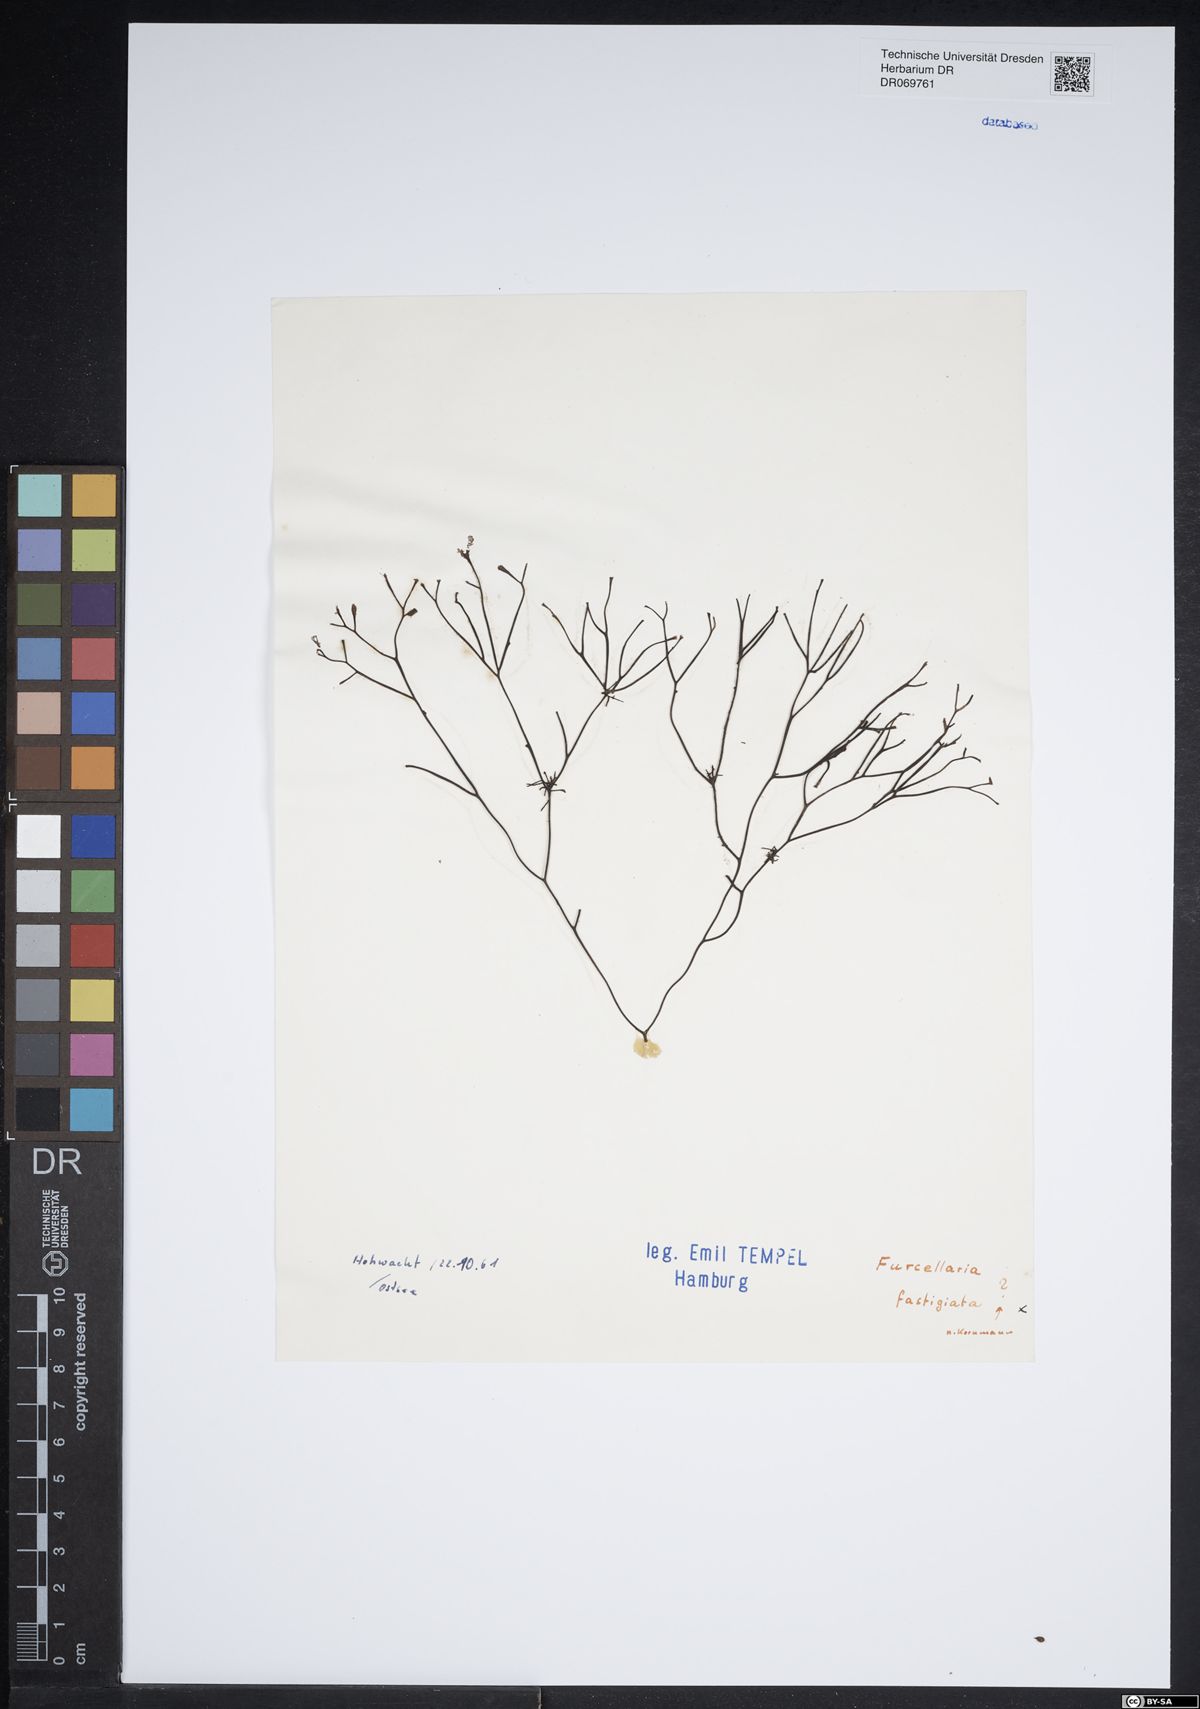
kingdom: Plantae
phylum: Rhodophyta
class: Florideophyceae
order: Gigartinales
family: Furcellariaceae
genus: Furcellaria
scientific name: Furcellaria lumbricalis
